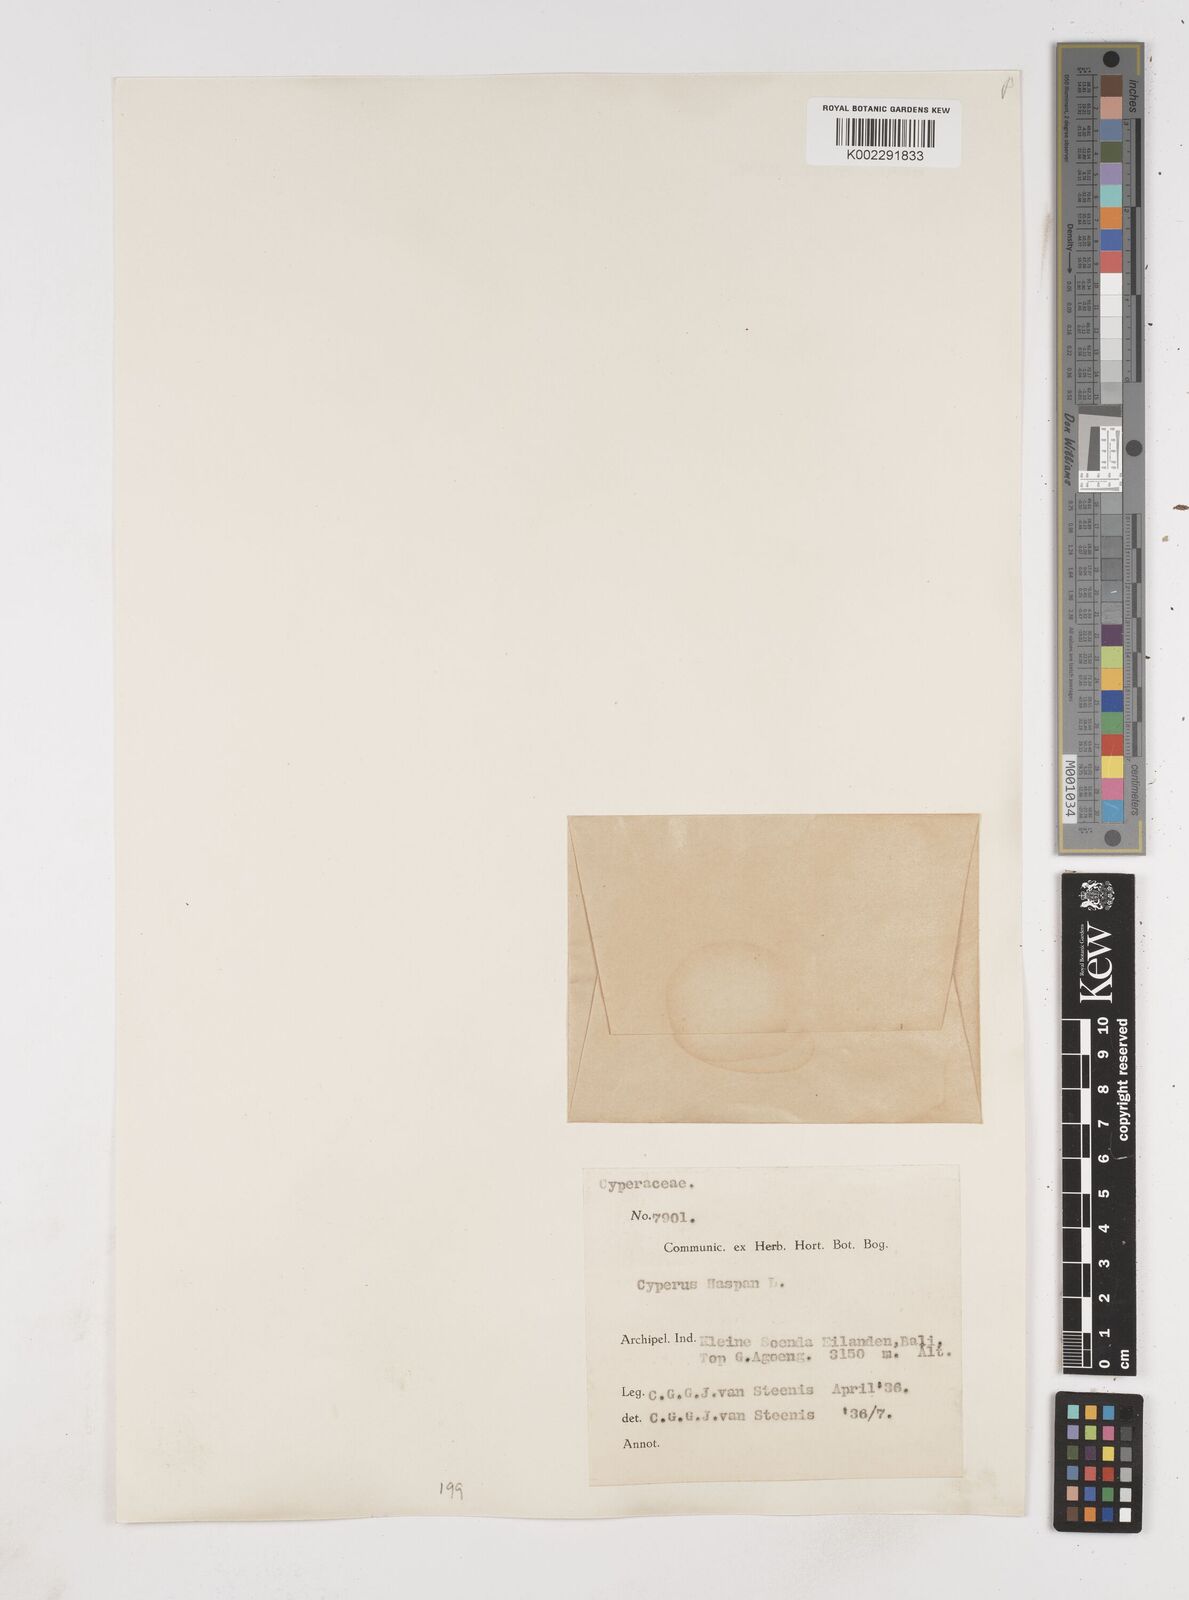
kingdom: Plantae
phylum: Tracheophyta
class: Liliopsida
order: Poales
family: Cyperaceae
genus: Cyperus
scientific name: Cyperus haspan
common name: Haspan flatsedge
